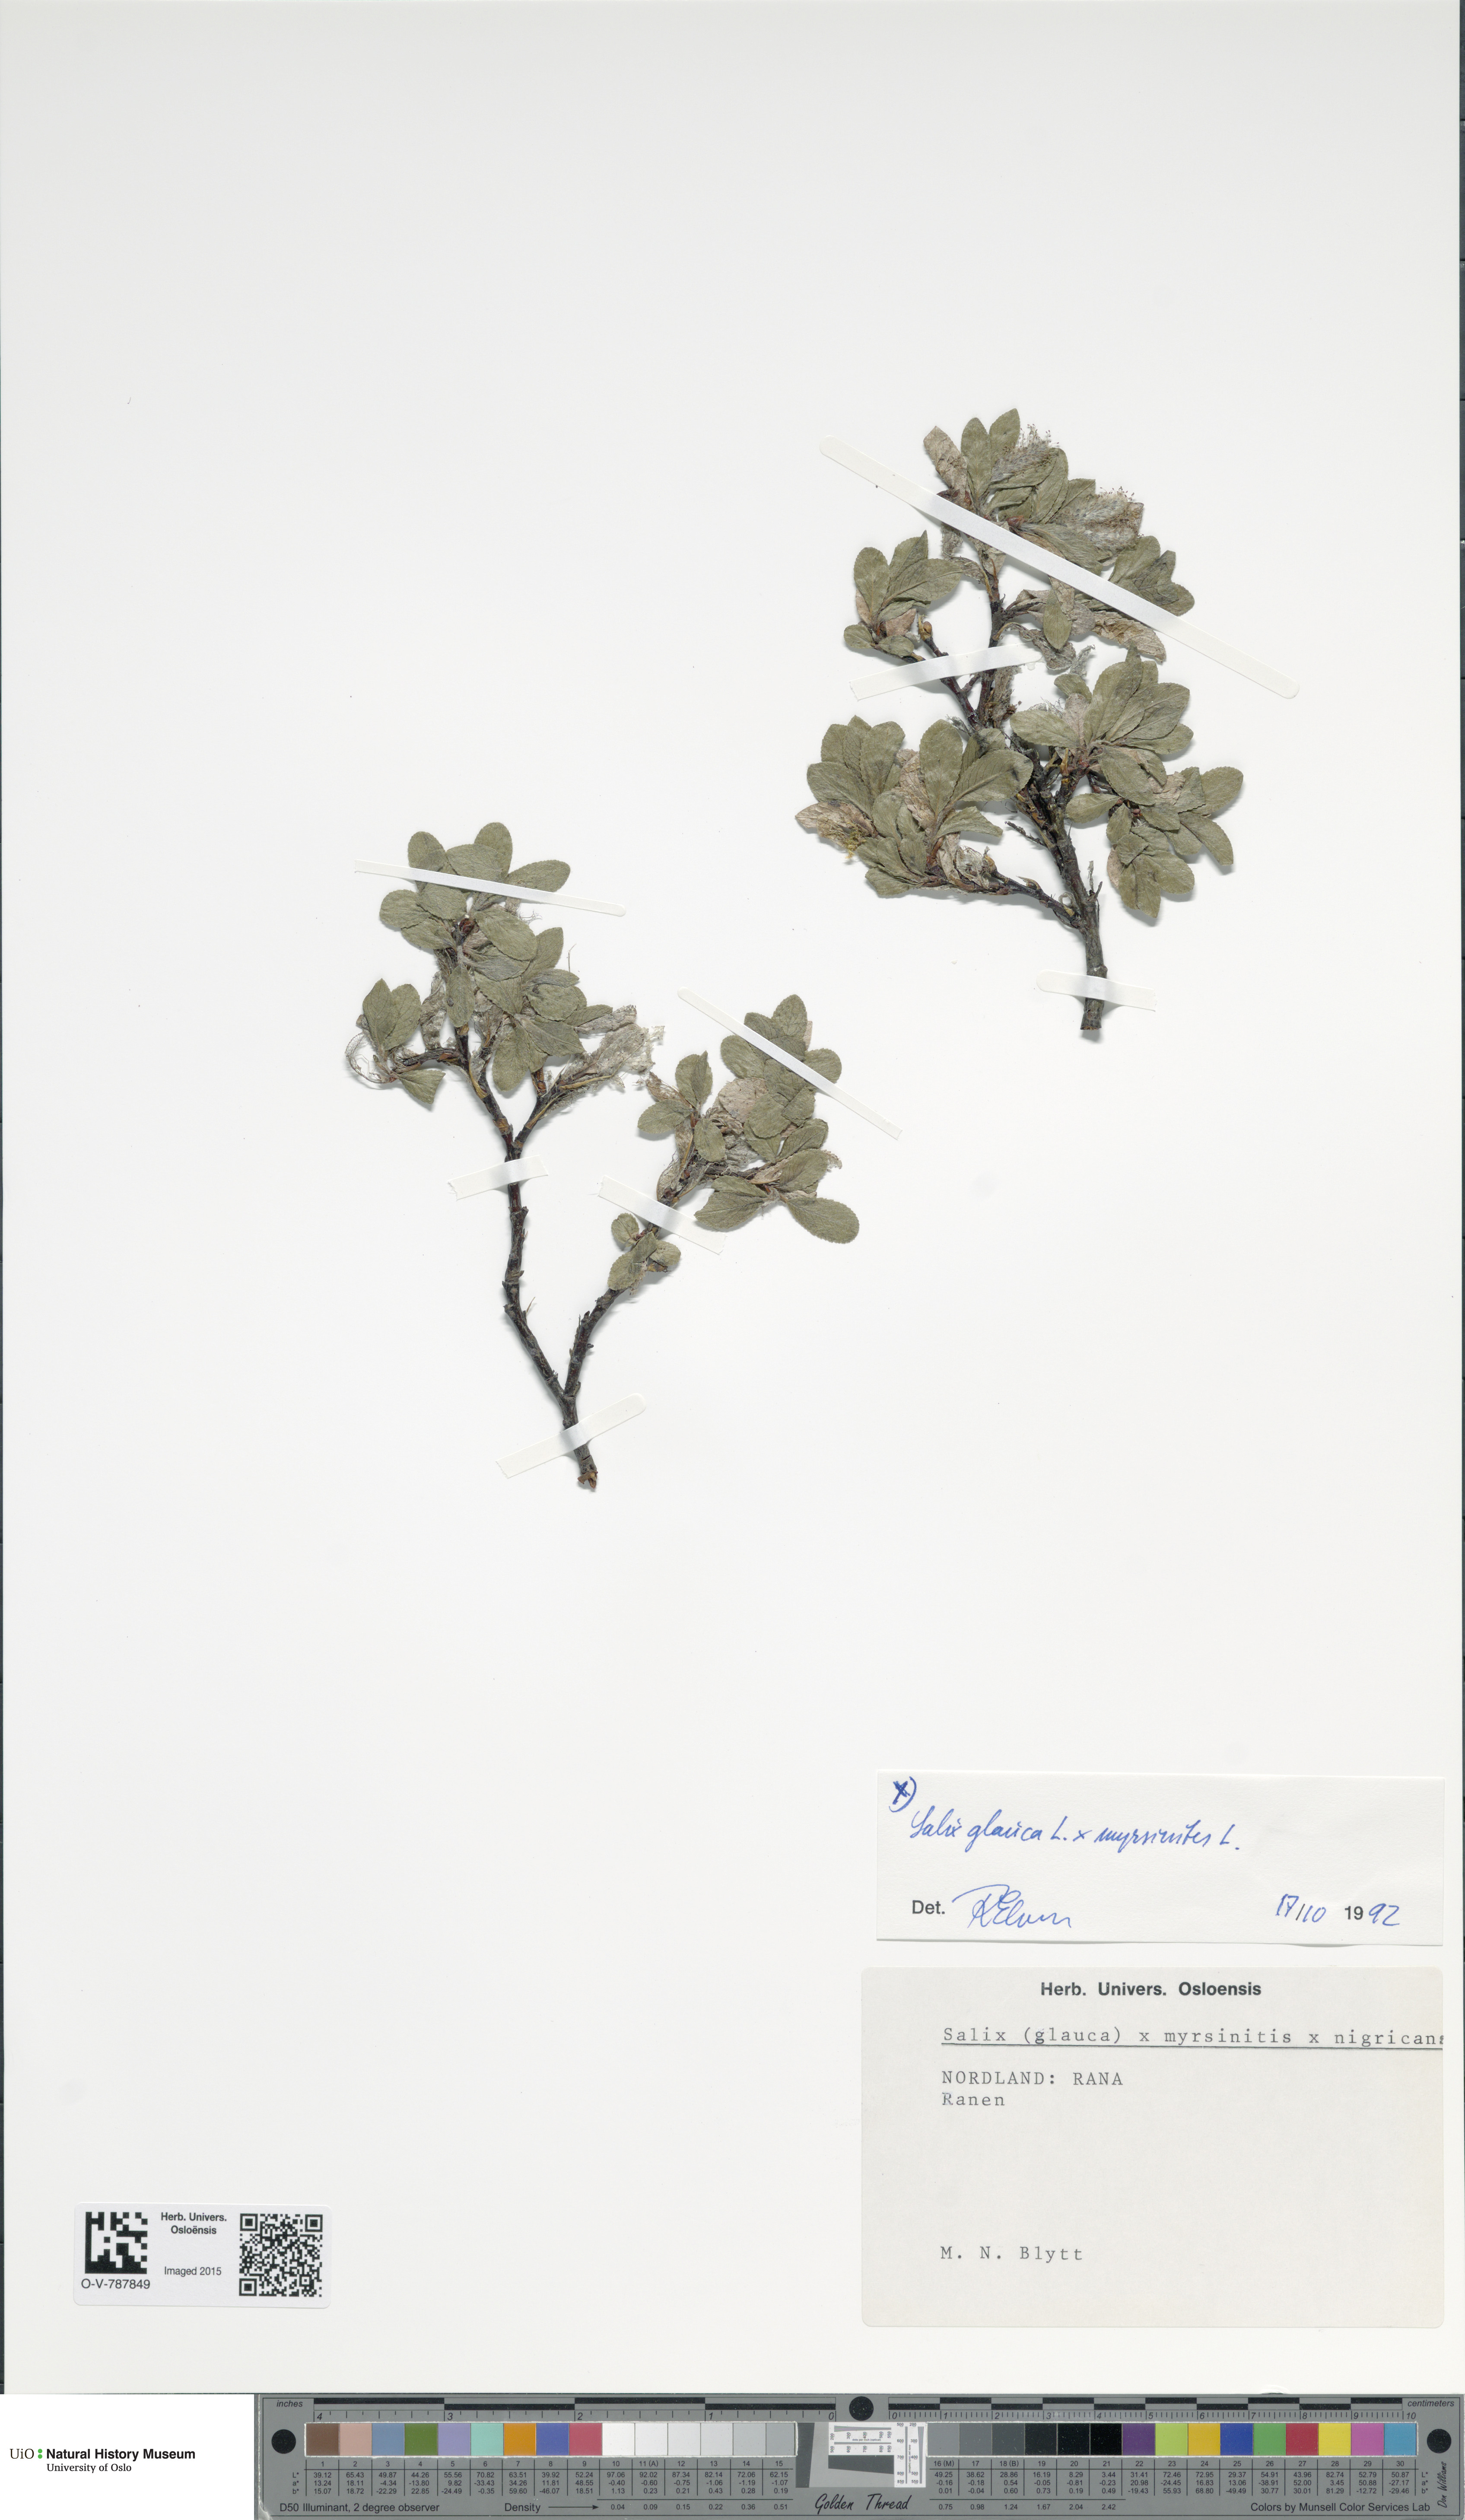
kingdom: Plantae
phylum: Tracheophyta
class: Magnoliopsida
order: Malpighiales
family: Salicaceae
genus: Salix
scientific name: Salix
